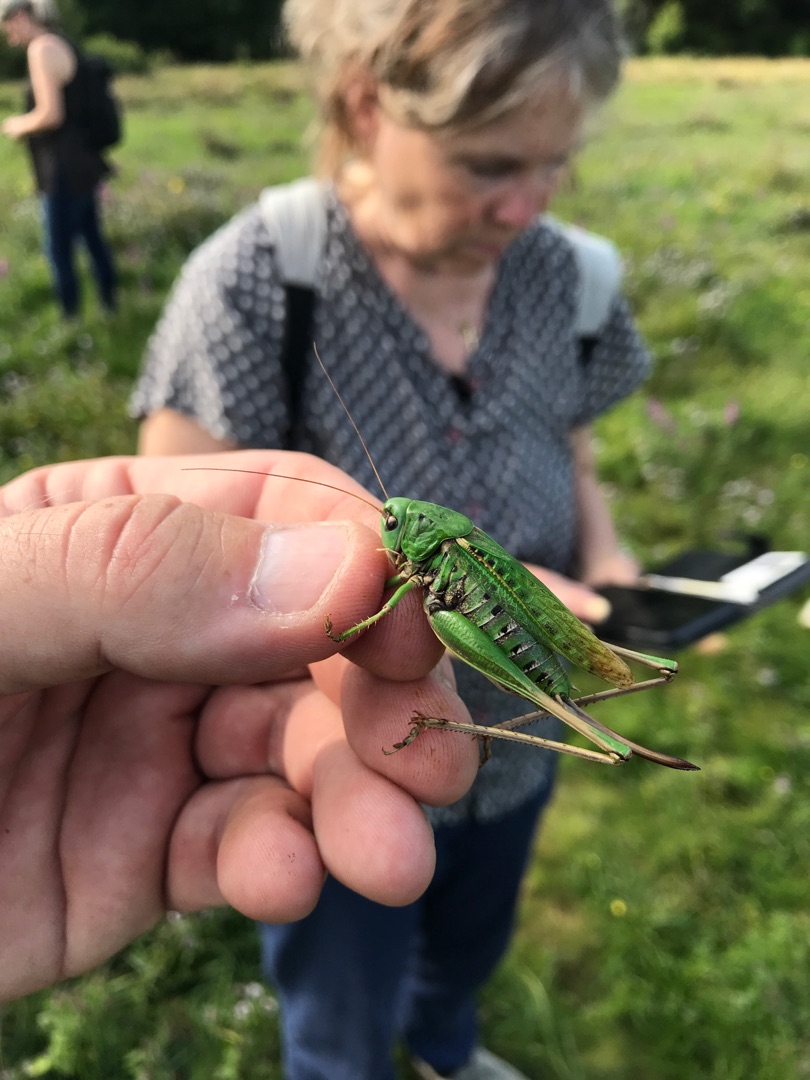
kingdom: Animalia
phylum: Arthropoda
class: Insecta
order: Orthoptera
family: Tettigoniidae
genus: Decticus
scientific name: Decticus verrucivorus
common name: Vortebider
